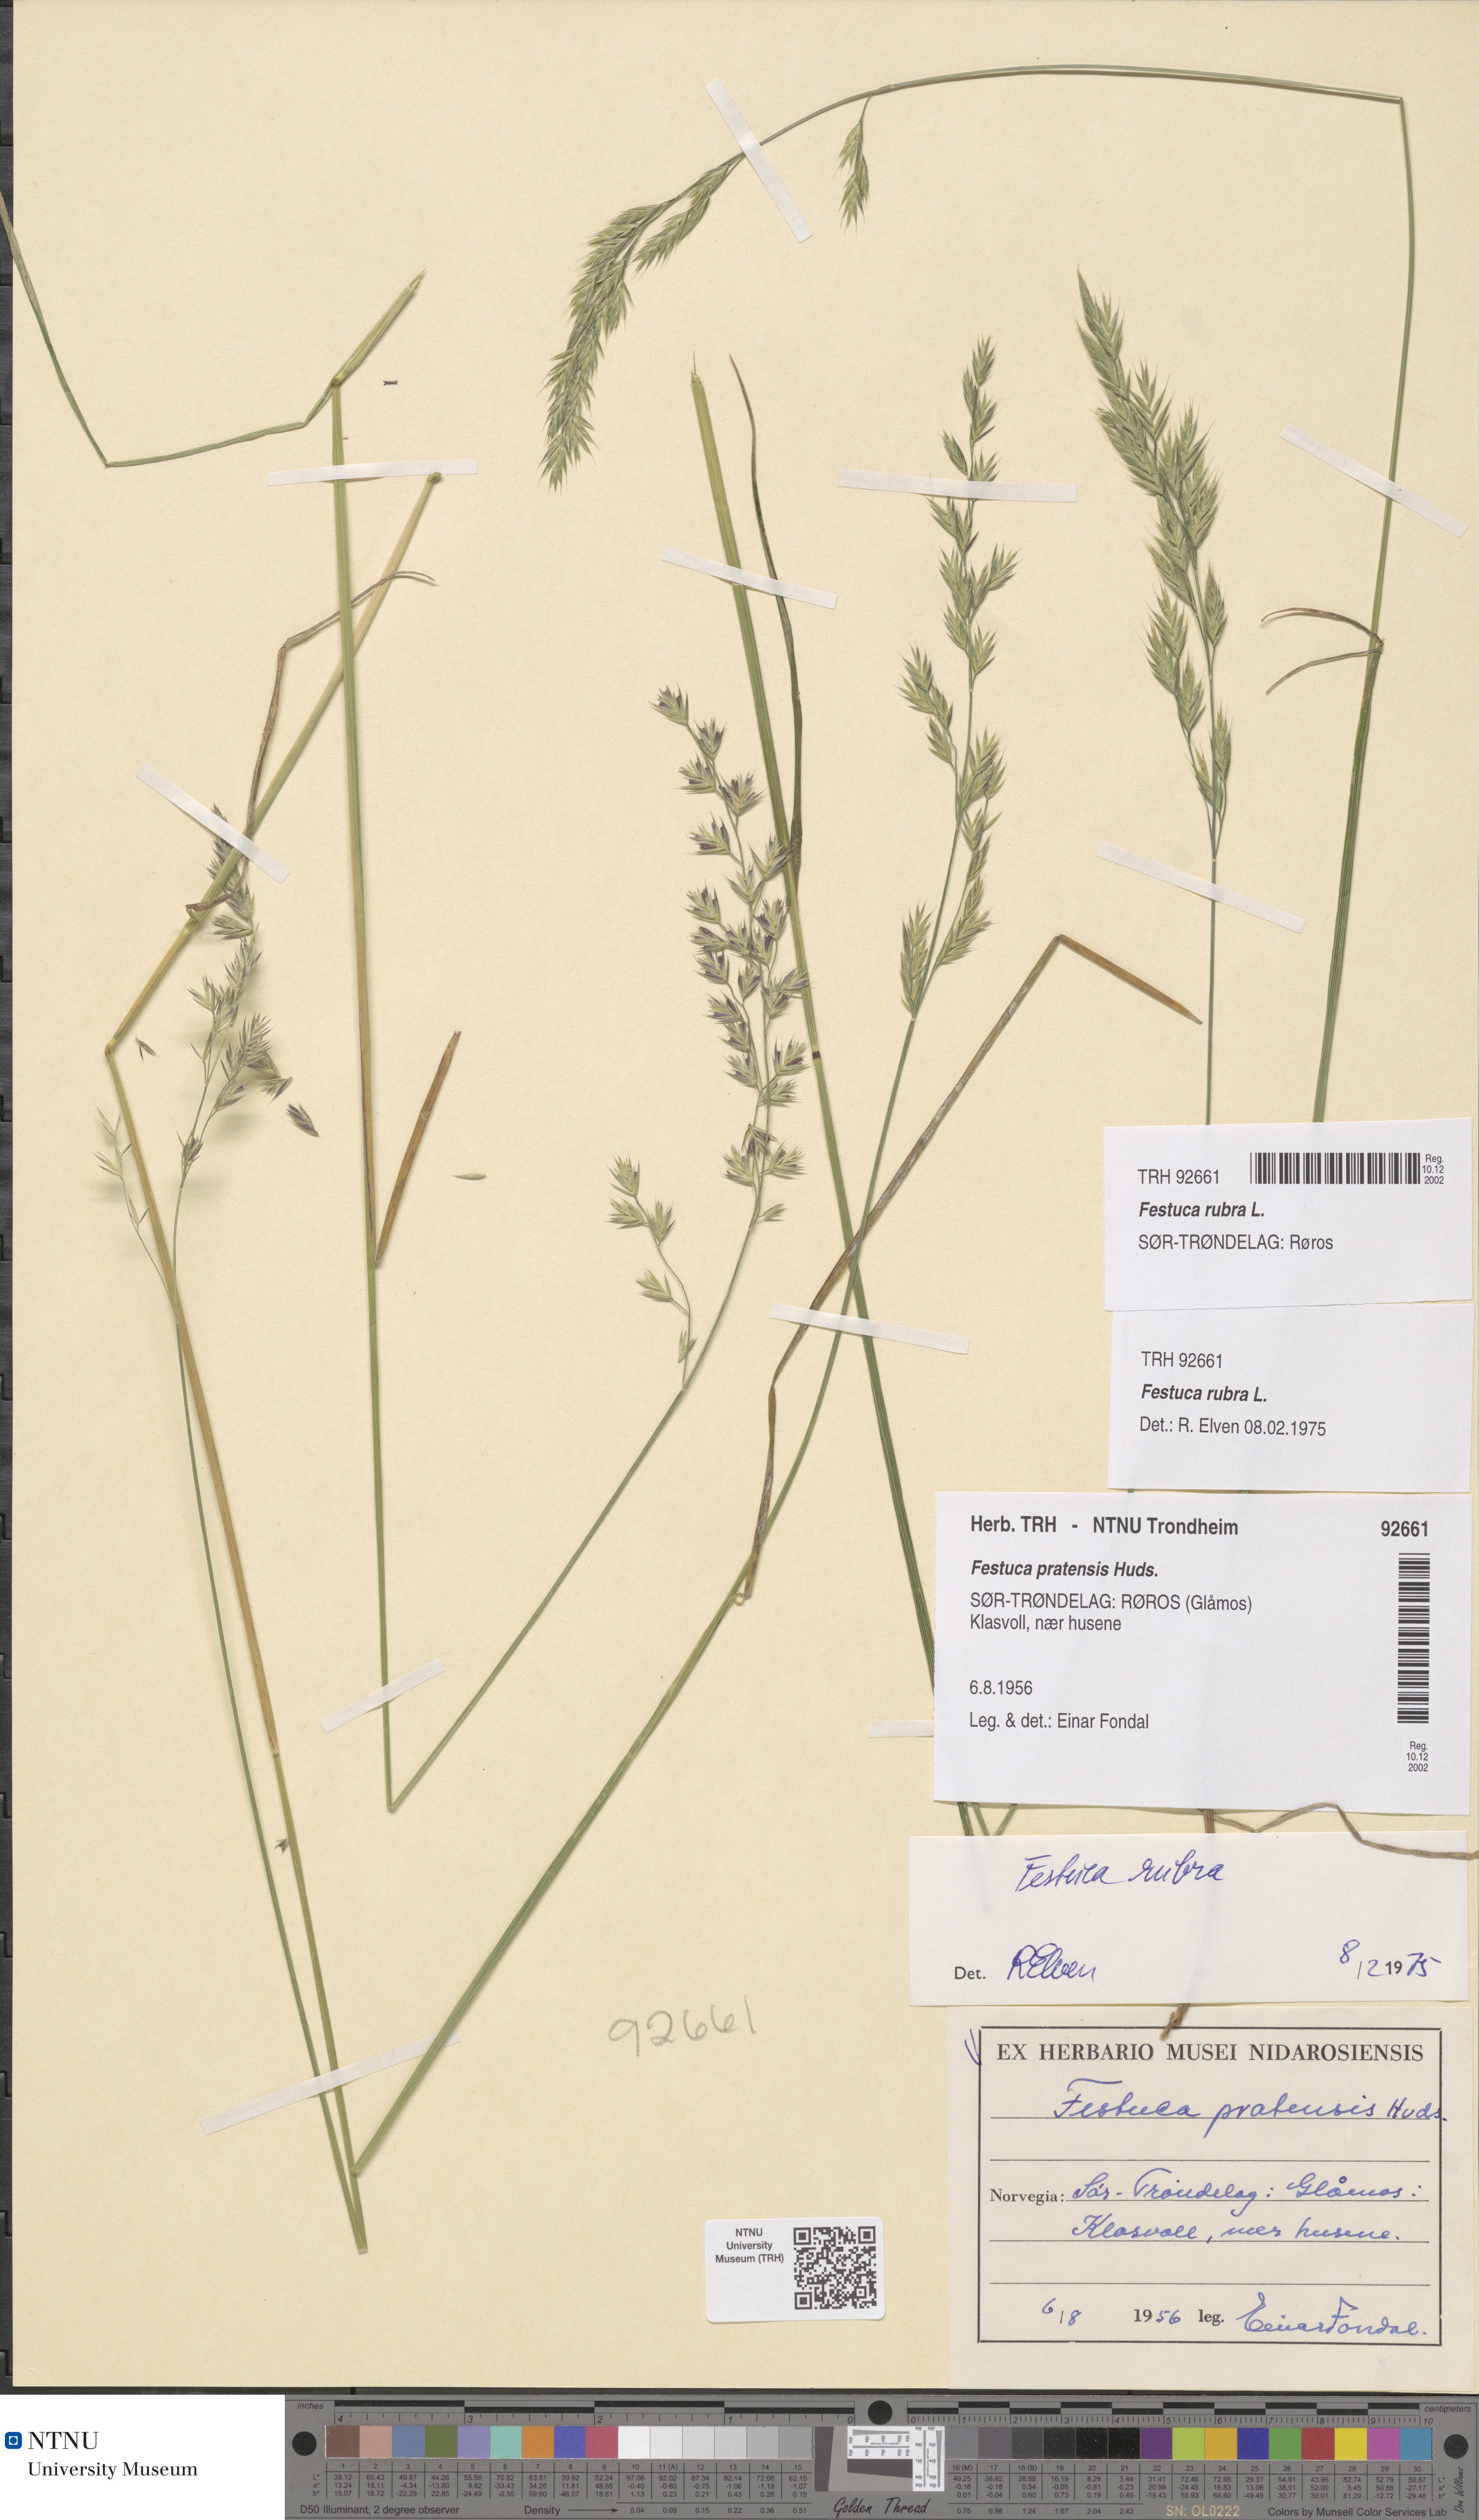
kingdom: Plantae
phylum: Tracheophyta
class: Liliopsida
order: Poales
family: Poaceae
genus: Festuca
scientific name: Festuca rubra
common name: Red fescue
